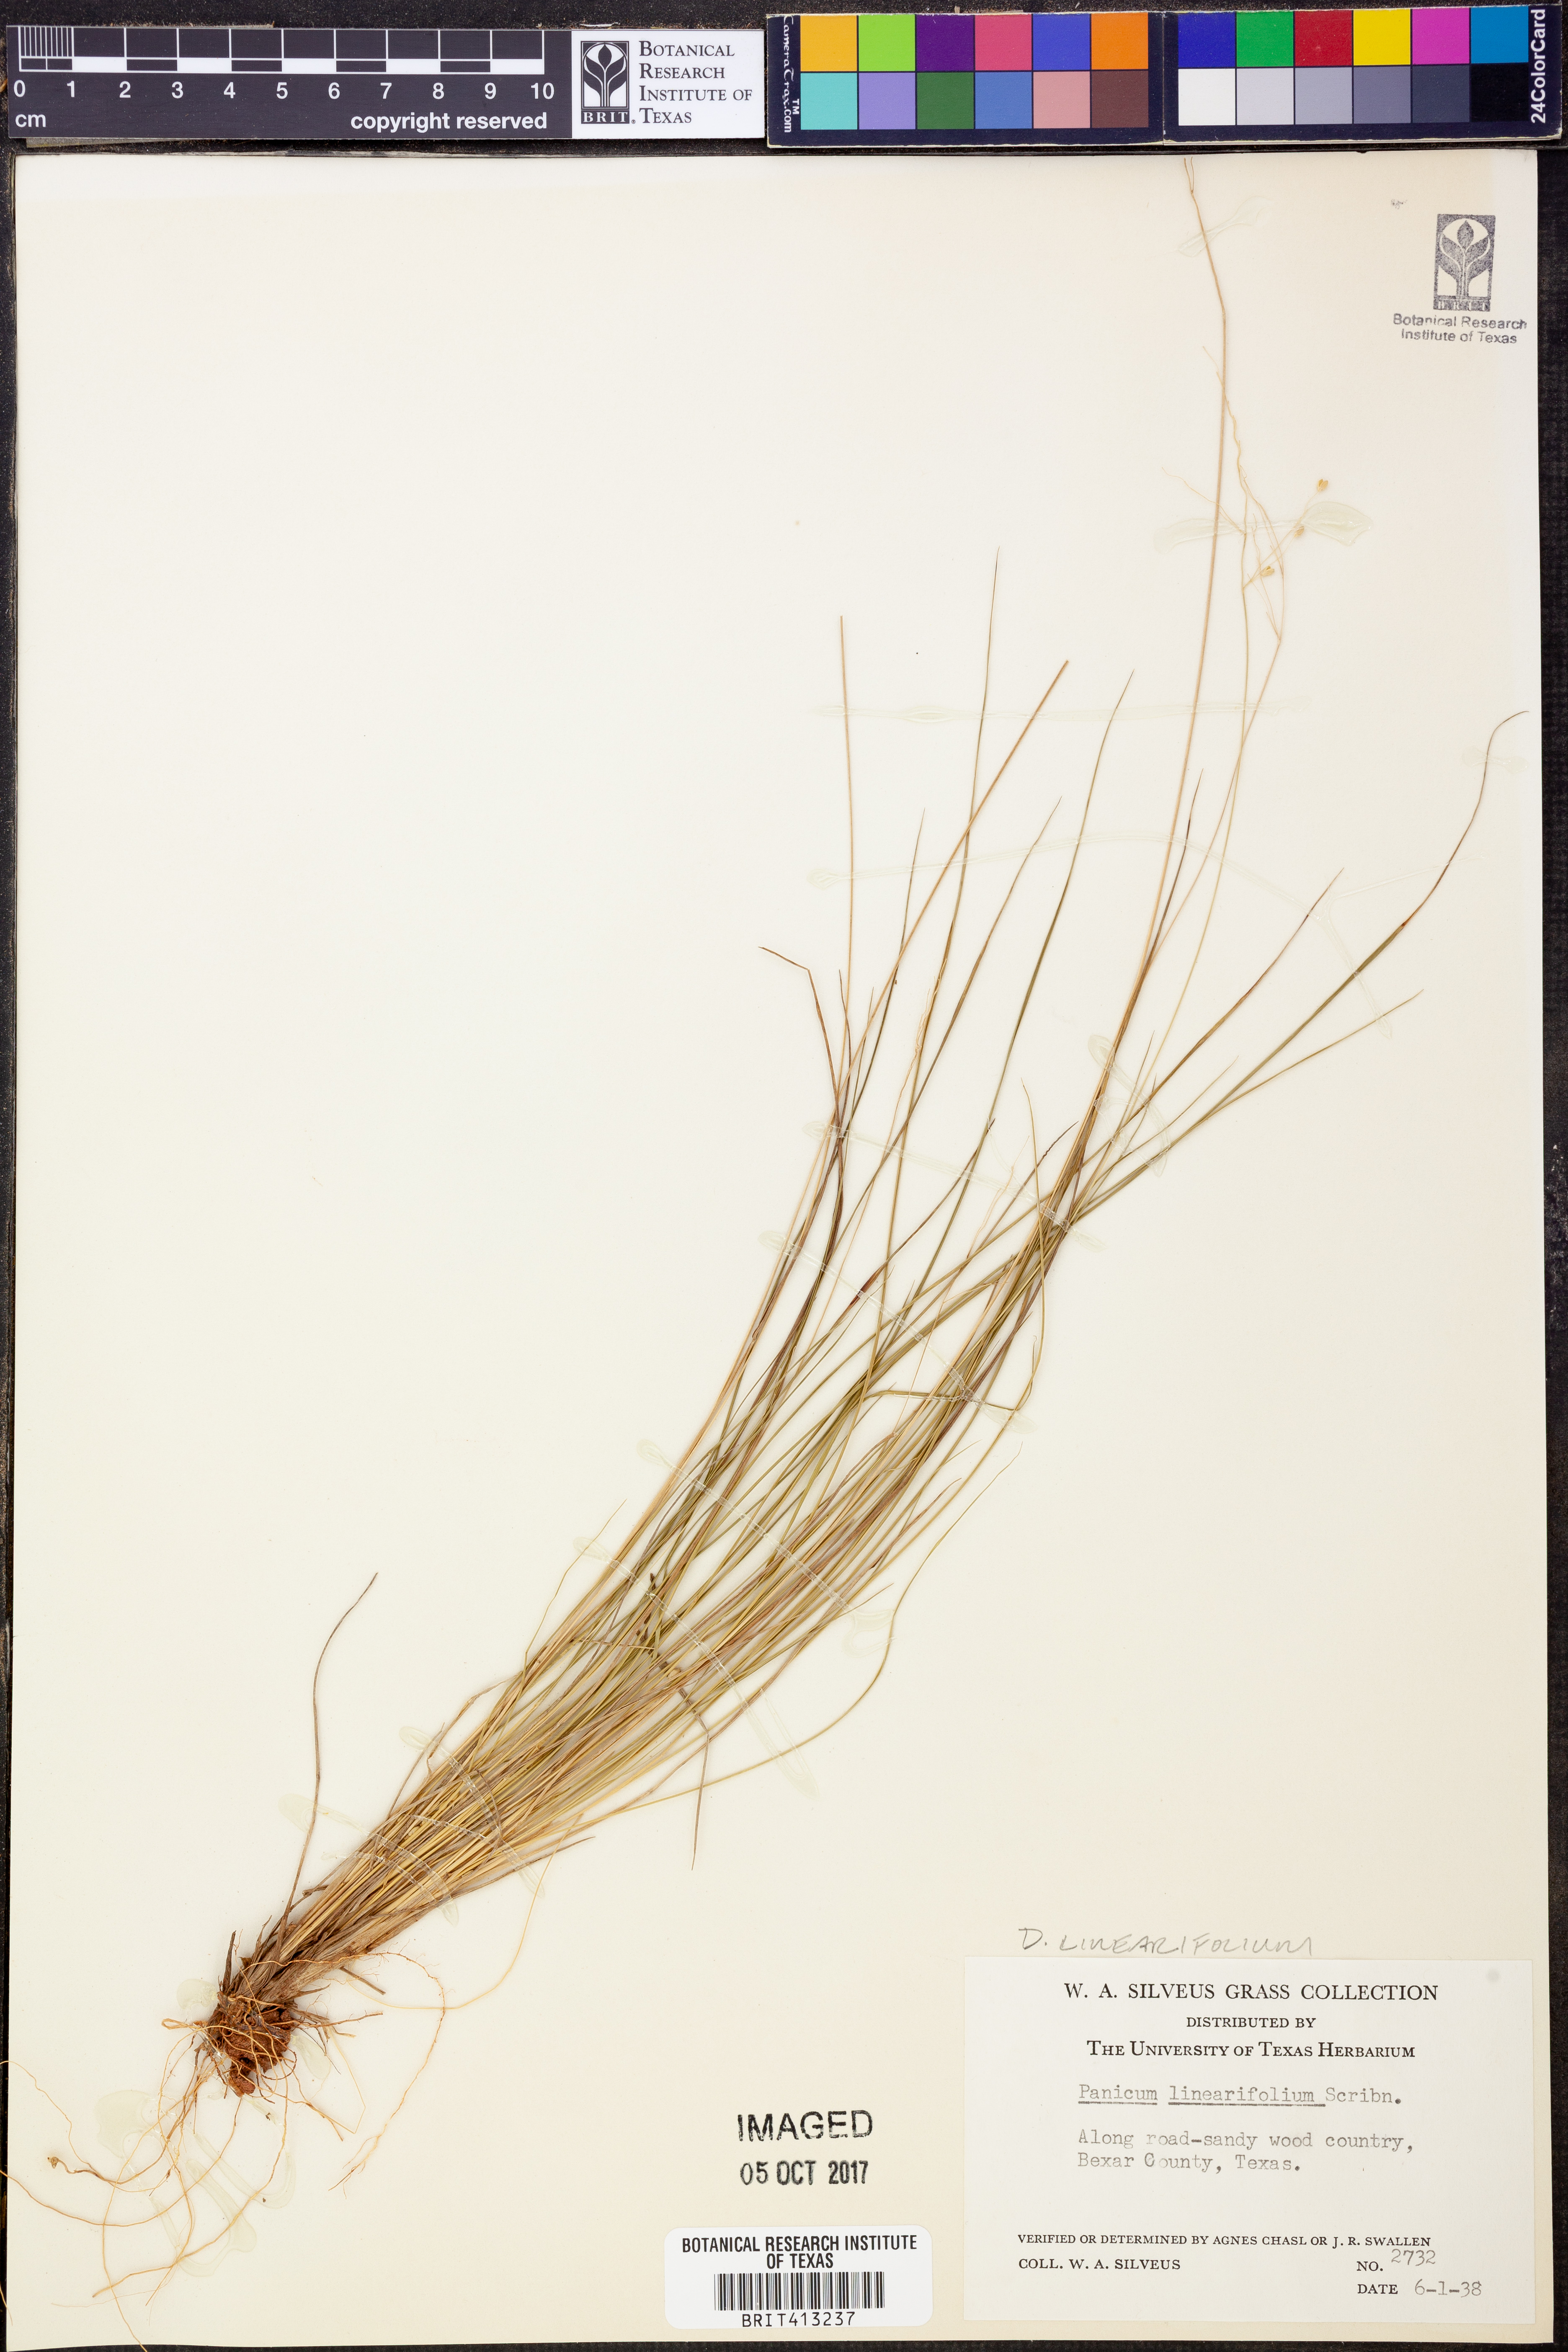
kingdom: Plantae
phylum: Tracheophyta
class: Liliopsida
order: Poales
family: Poaceae
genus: Dichanthelium
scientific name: Dichanthelium linearifolium
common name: Linear-leaved panicgrass
